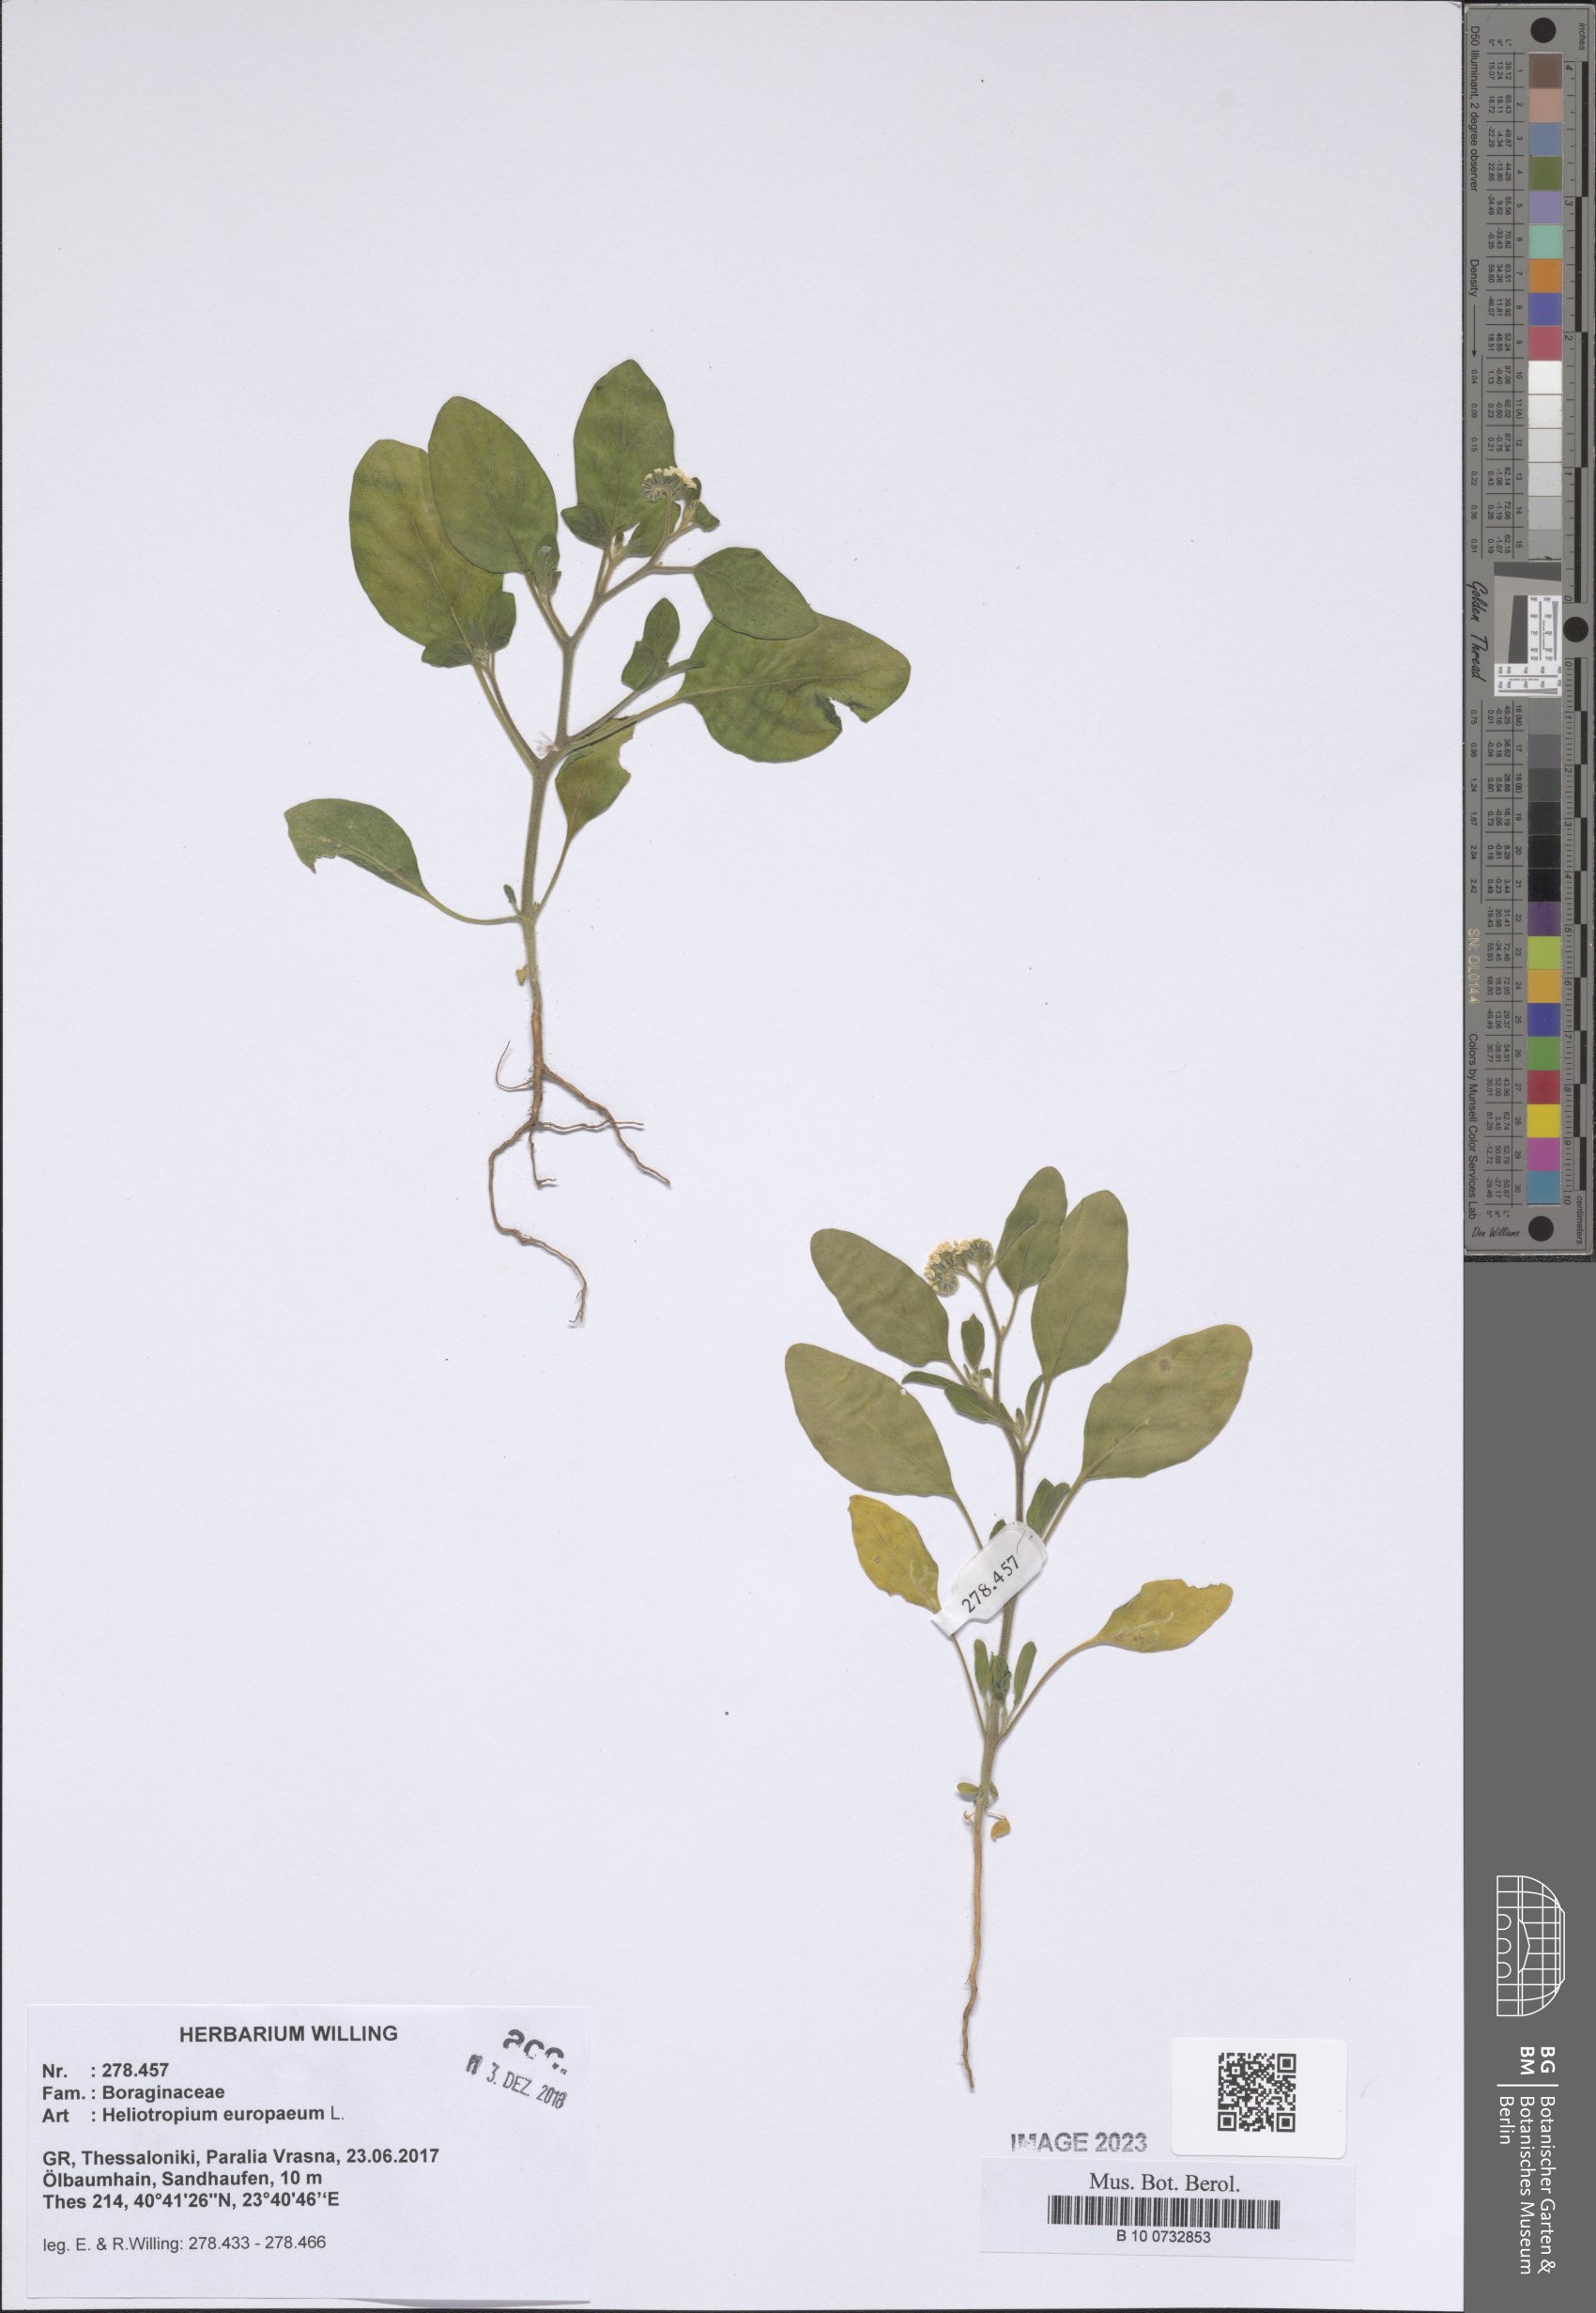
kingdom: Plantae
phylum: Tracheophyta
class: Magnoliopsida
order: Boraginales
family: Heliotropiaceae
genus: Heliotropium
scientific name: Heliotropium europaeum
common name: European heliotrope
